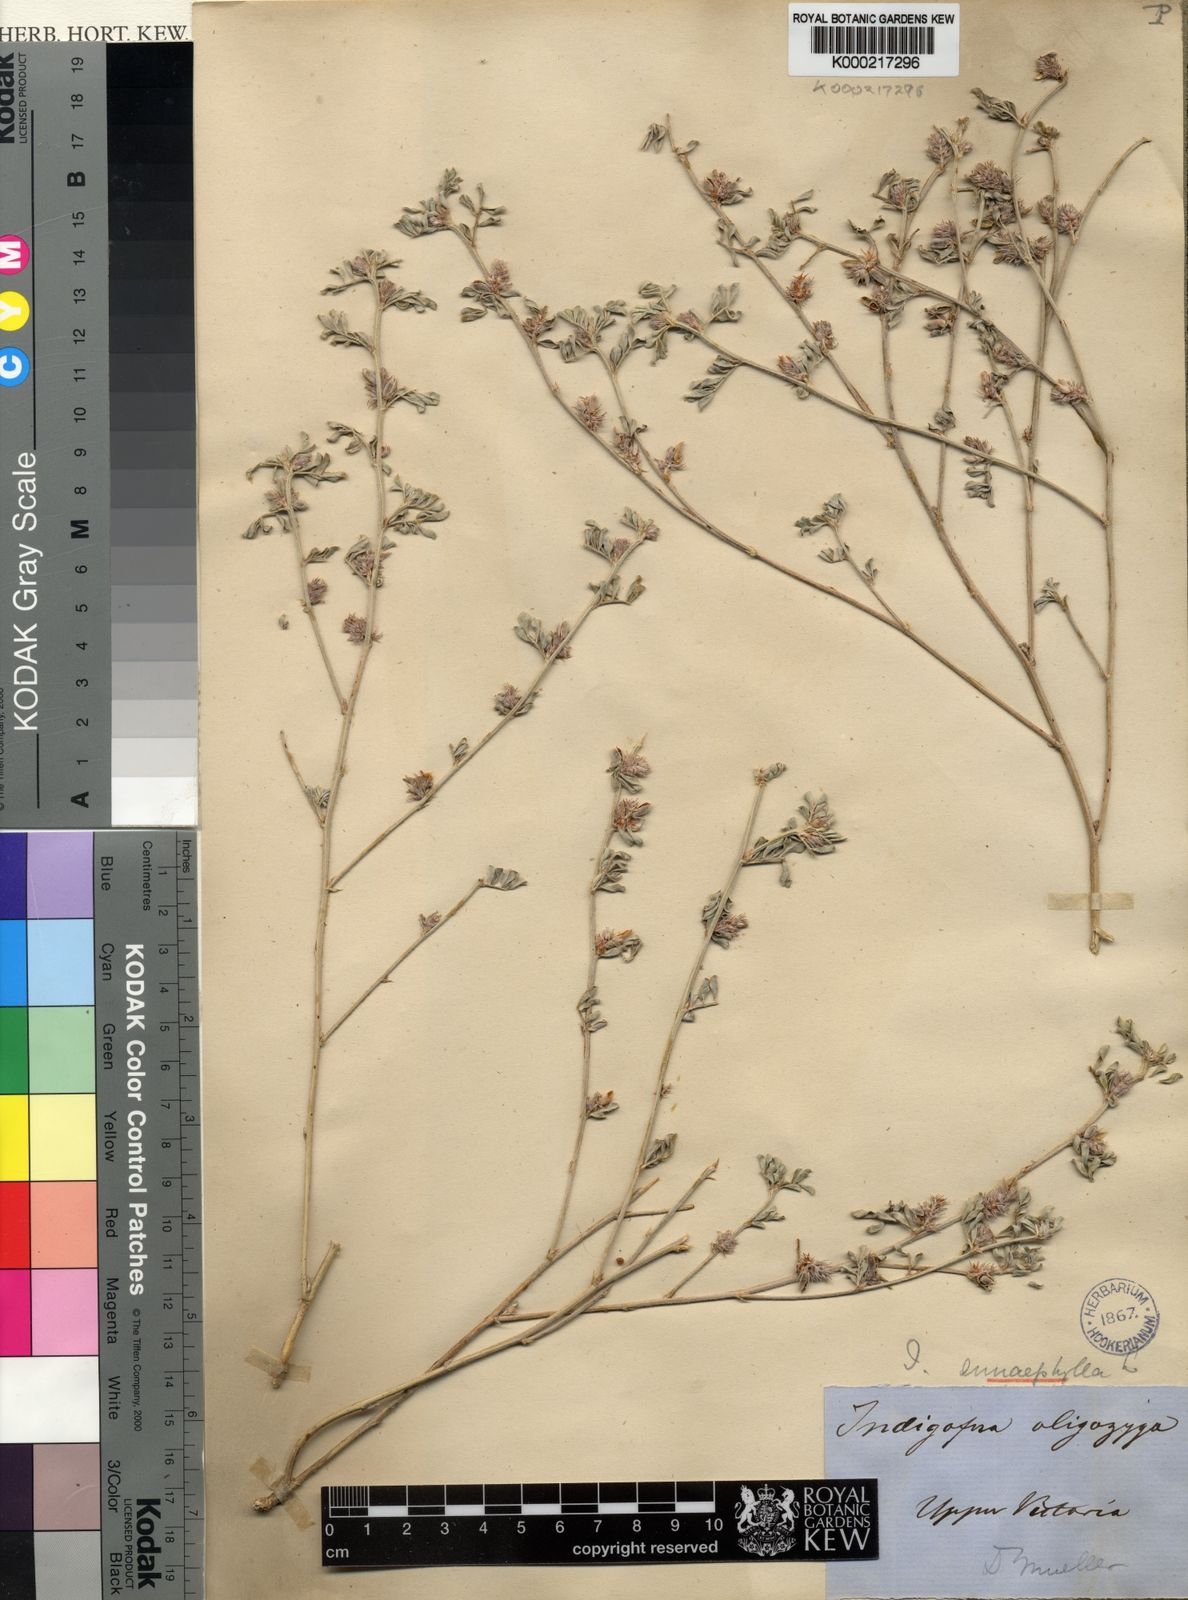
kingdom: Plantae
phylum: Tracheophyta
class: Magnoliopsida
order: Fabales
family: Fabaceae
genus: Indigofera
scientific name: Indigofera linnaei
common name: Nine-leaf indigo
